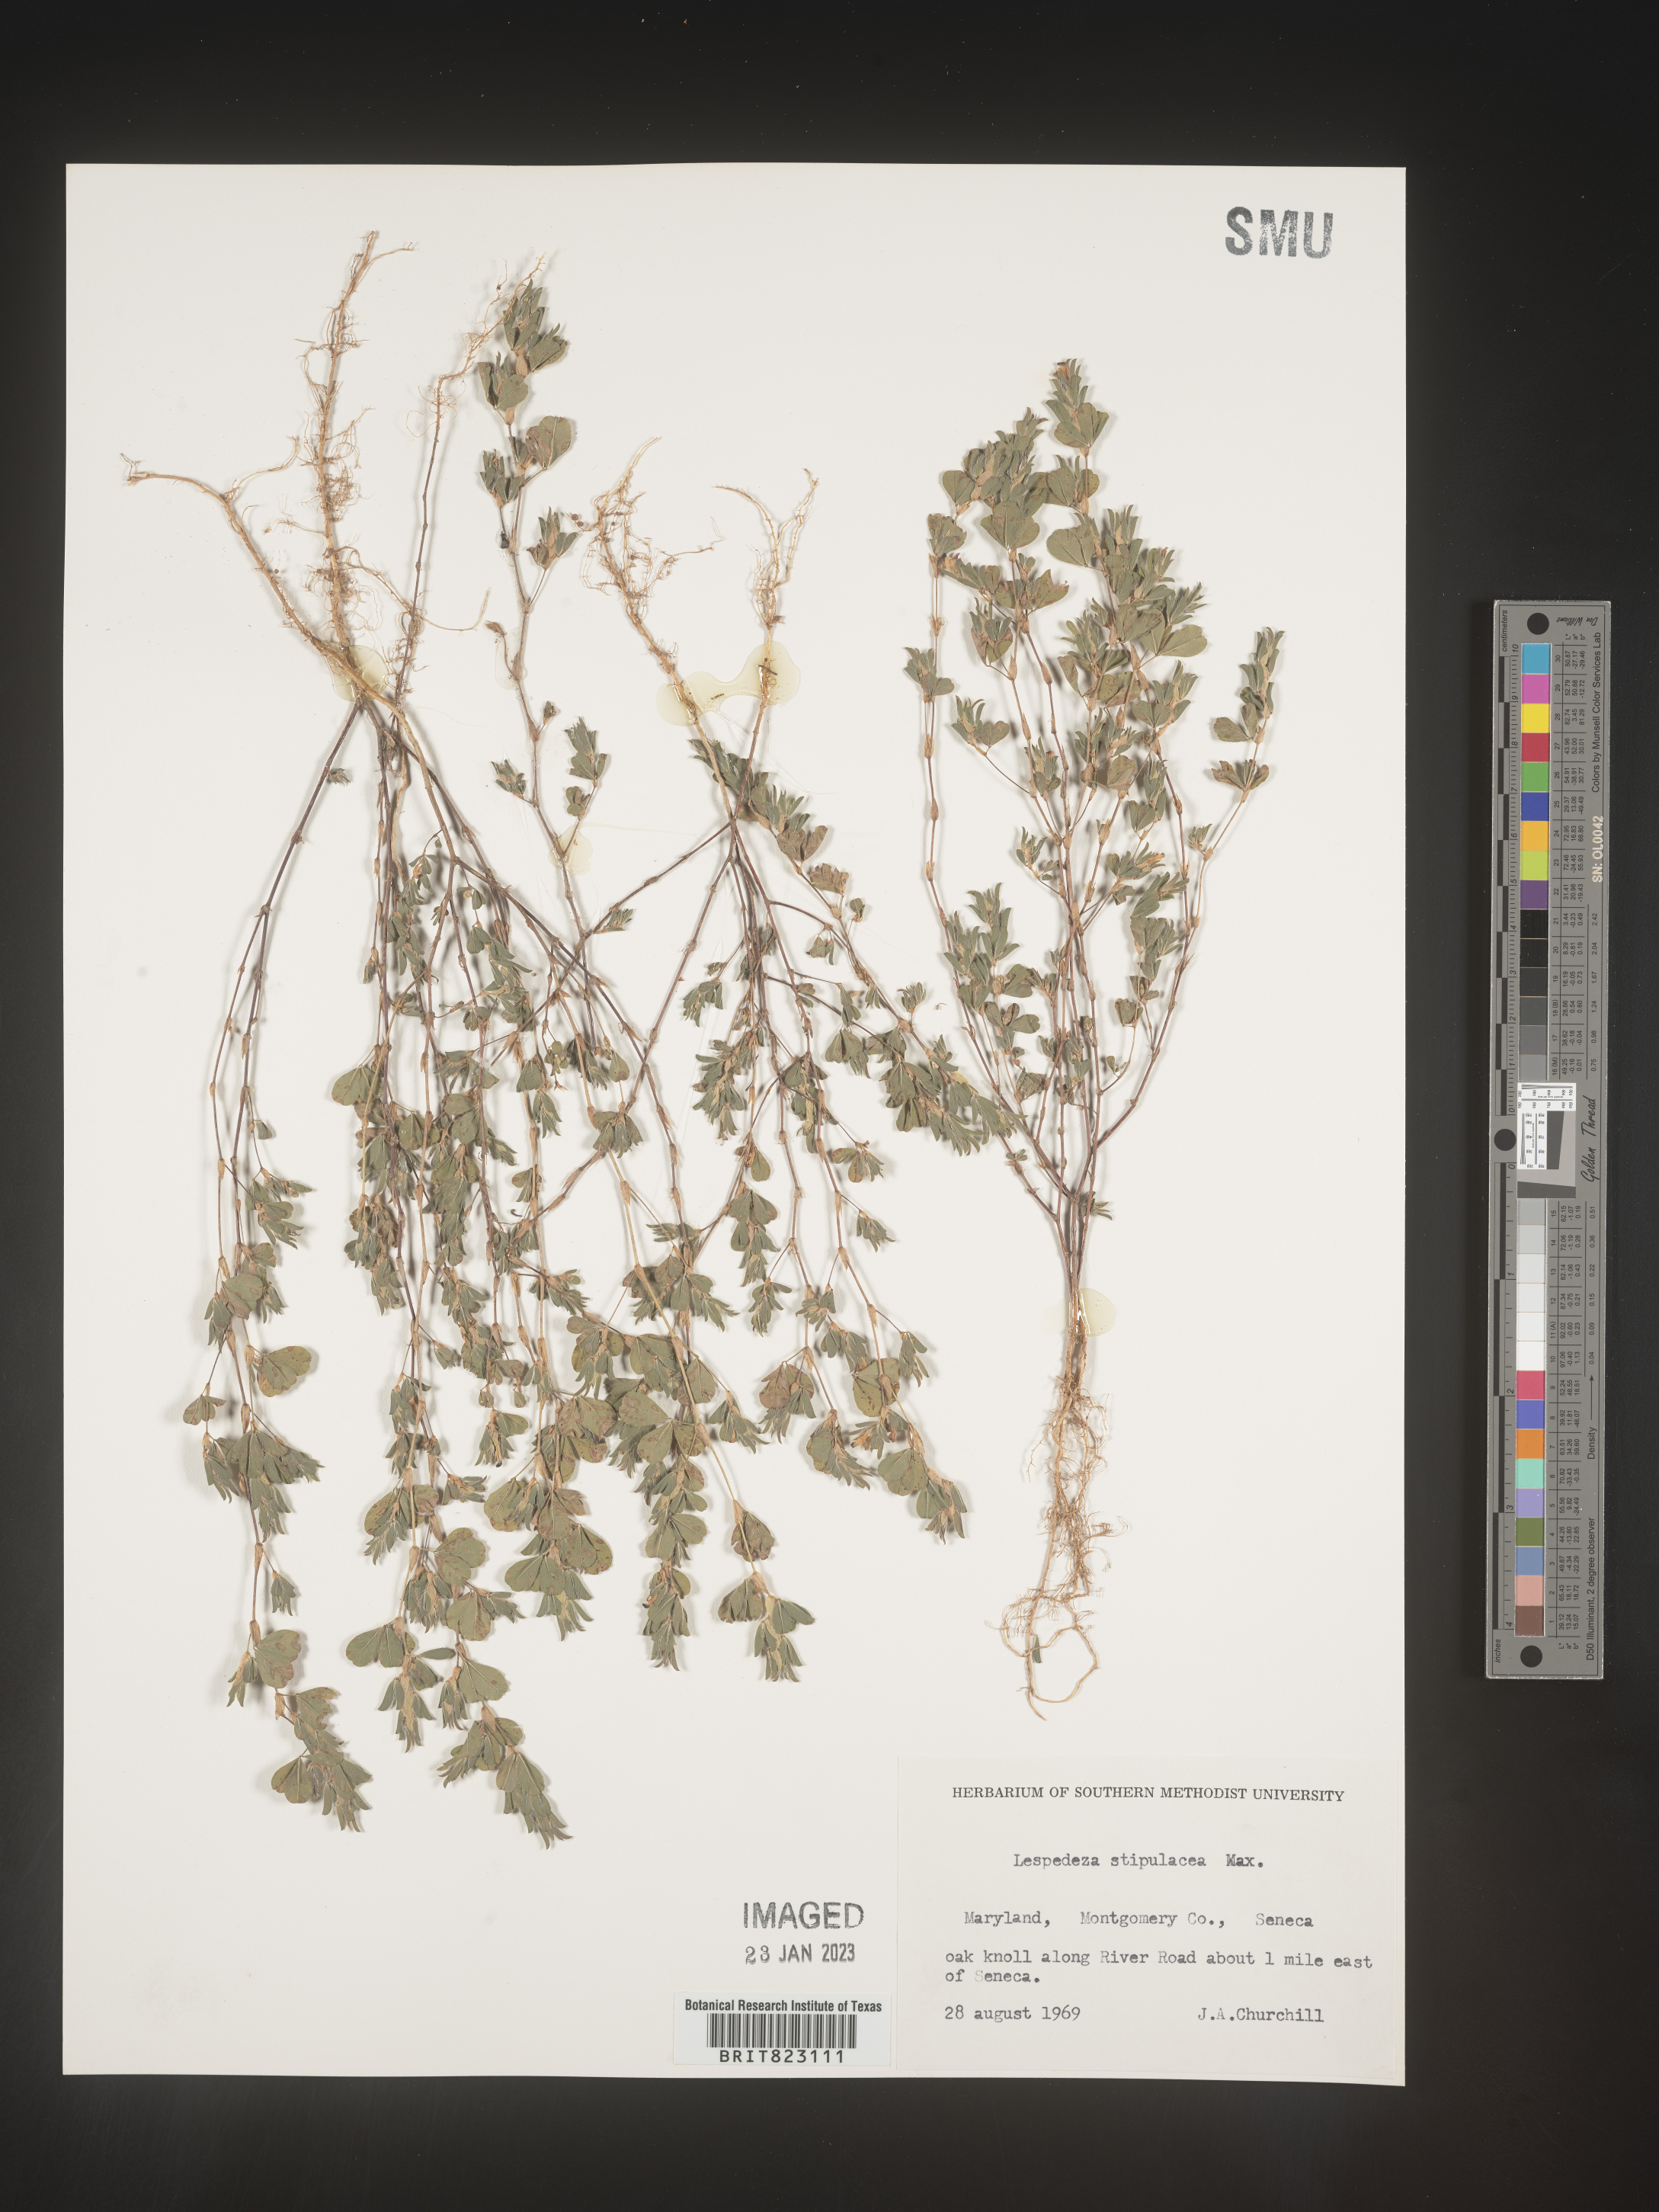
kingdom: Plantae
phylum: Tracheophyta
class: Magnoliopsida
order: Fabales
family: Fabaceae
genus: Lespedeza
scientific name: Lespedeza
